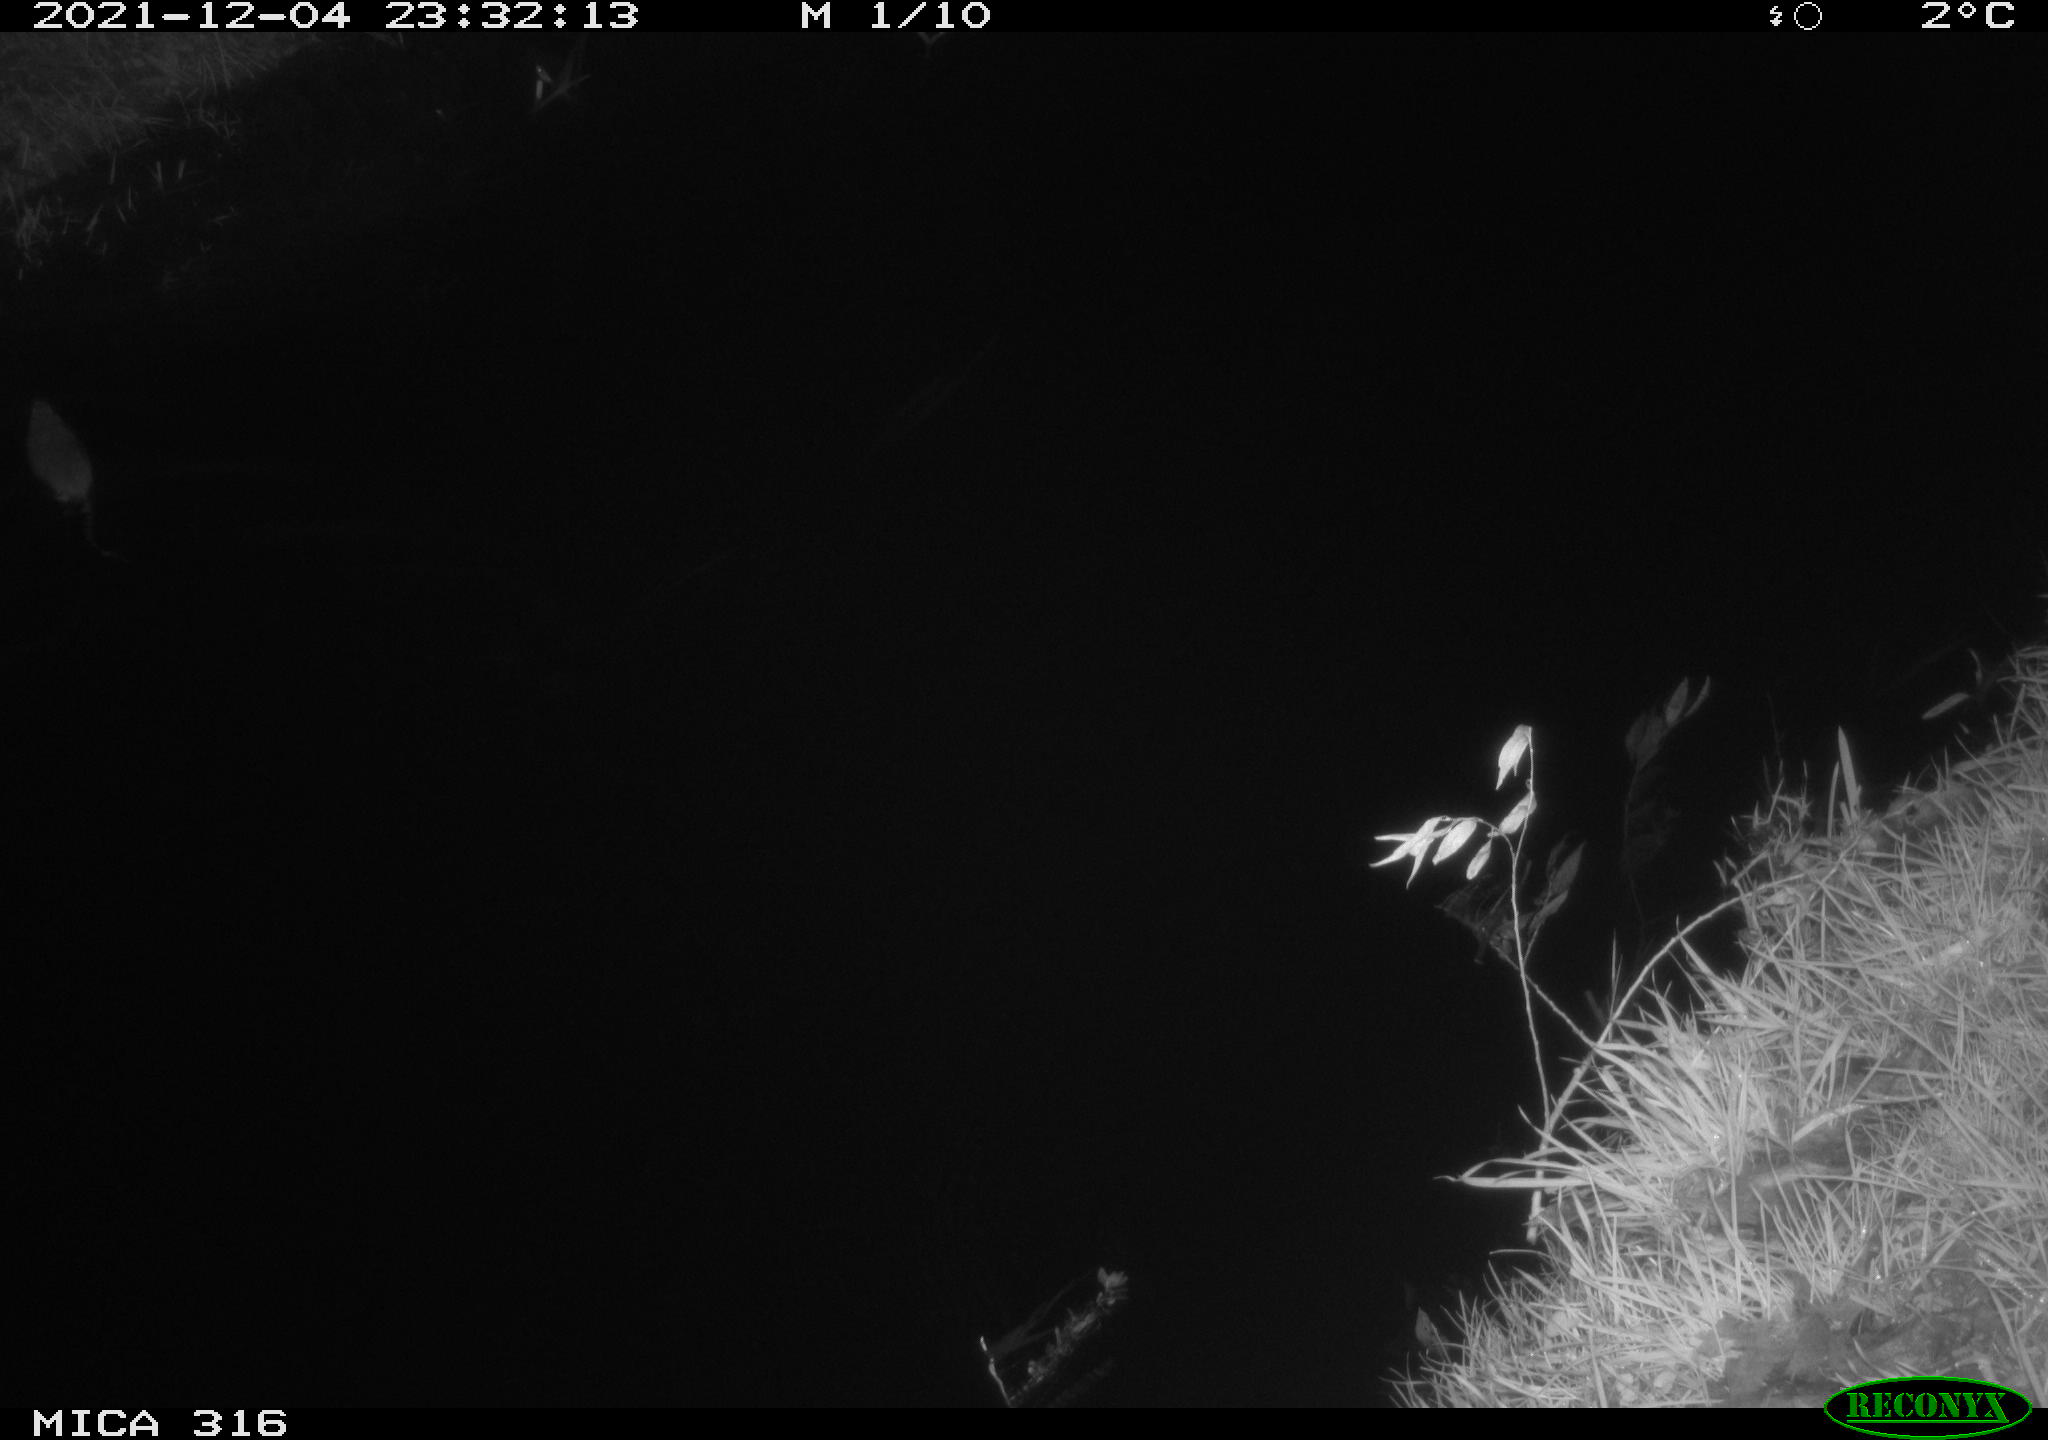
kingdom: Animalia
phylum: Chordata
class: Mammalia
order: Rodentia
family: Muridae
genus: Rattus
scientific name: Rattus norvegicus
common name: Brown rat
